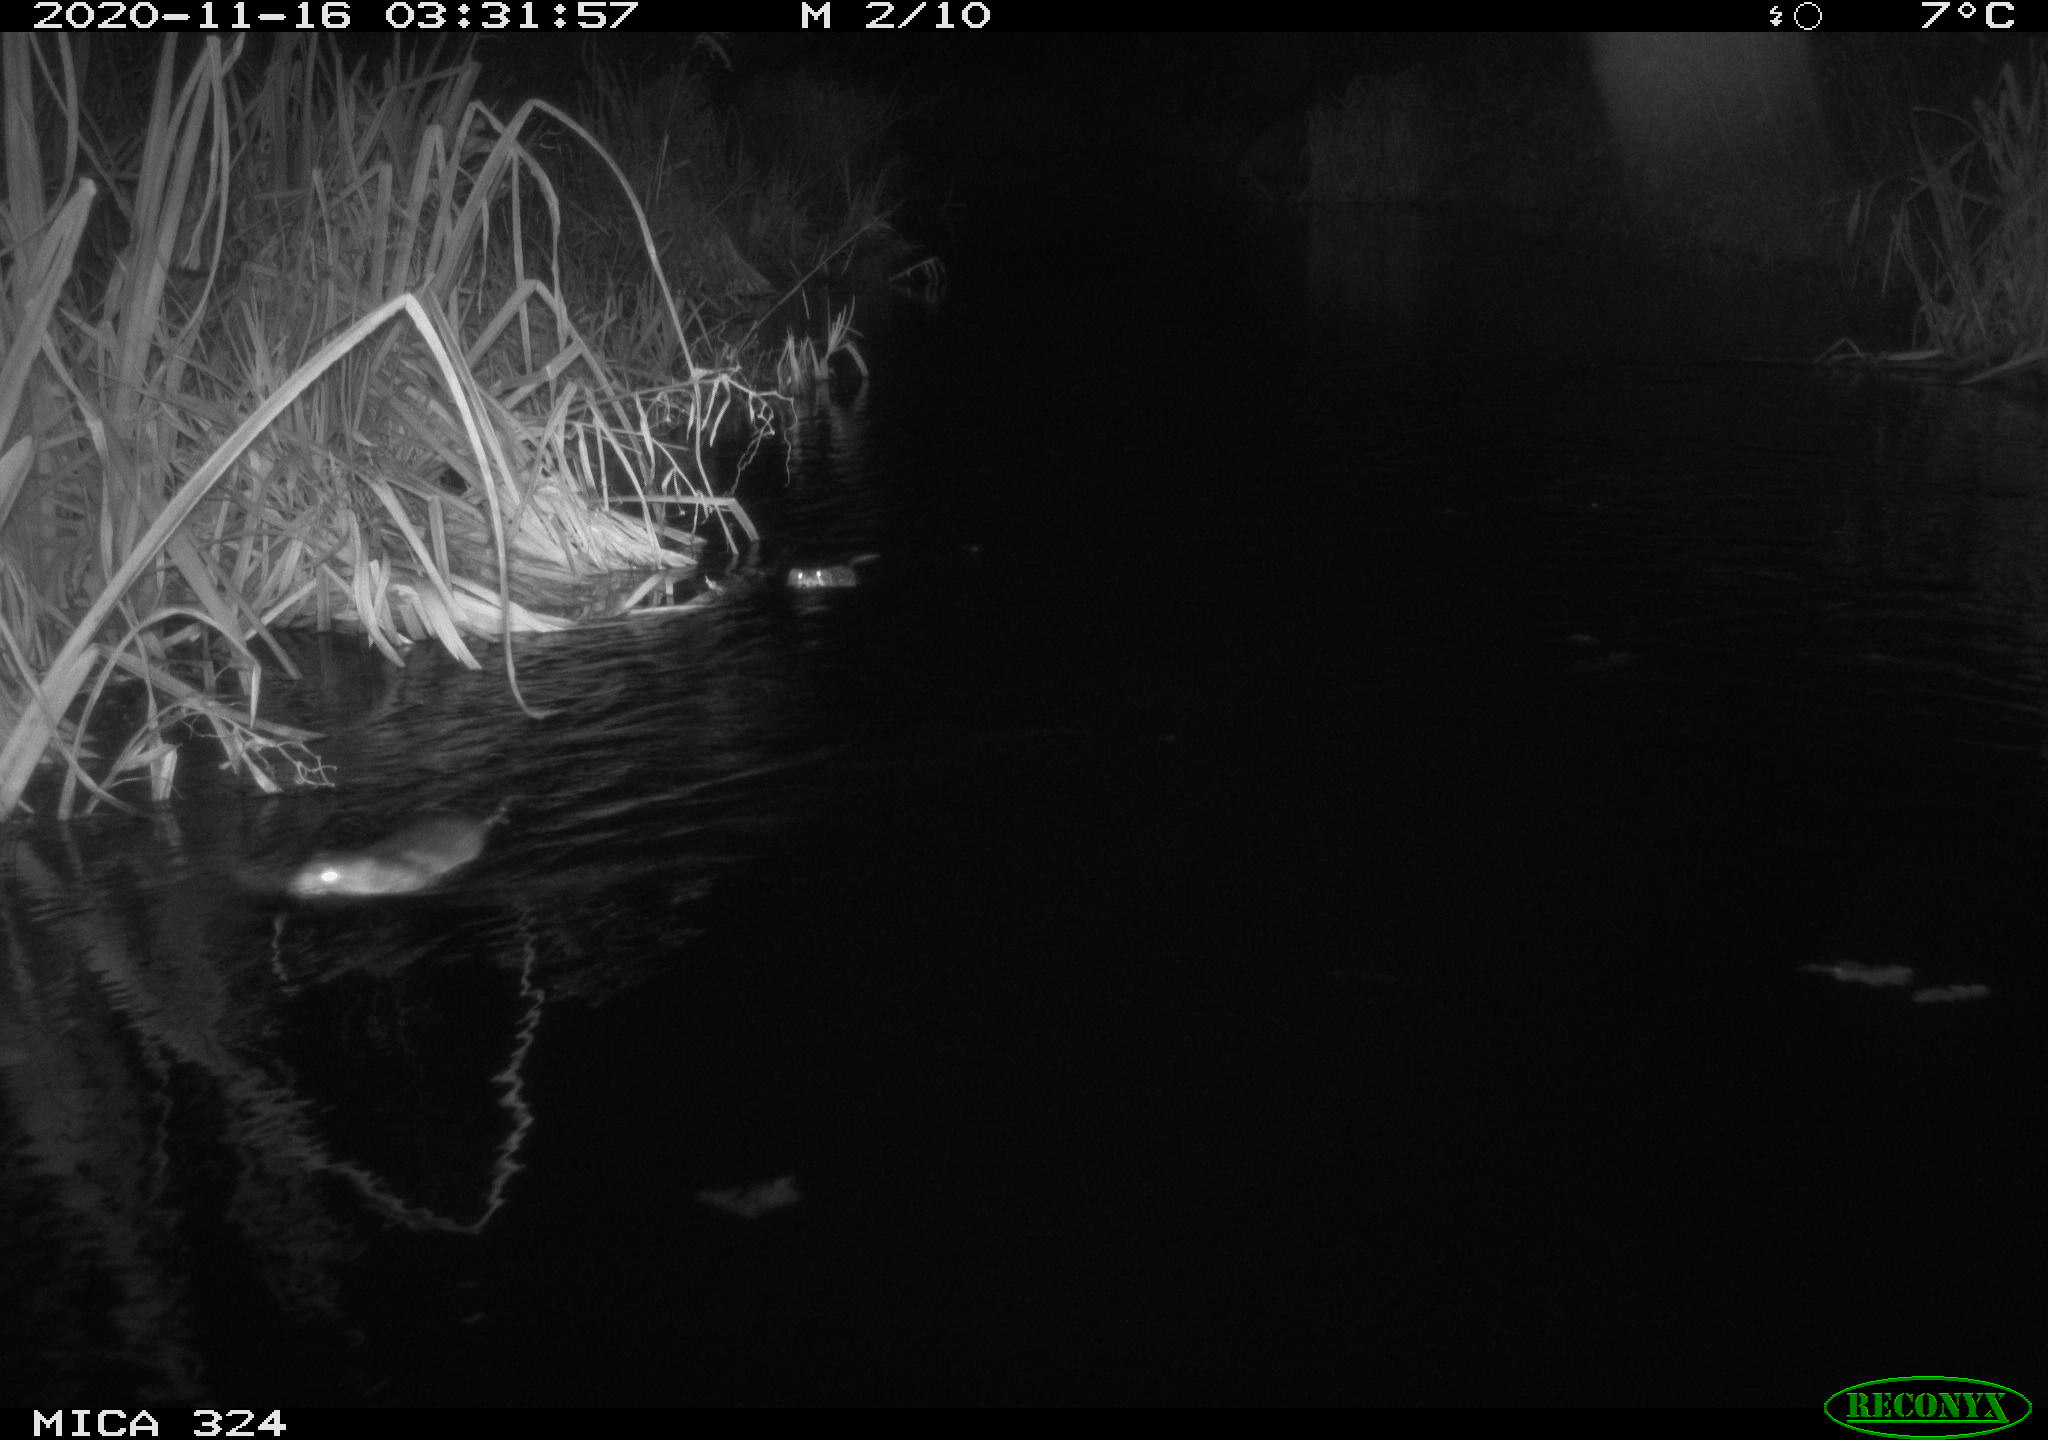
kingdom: Animalia
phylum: Chordata
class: Mammalia
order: Rodentia
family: Cricetidae
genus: Ondatra
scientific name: Ondatra zibethicus
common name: Muskrat
